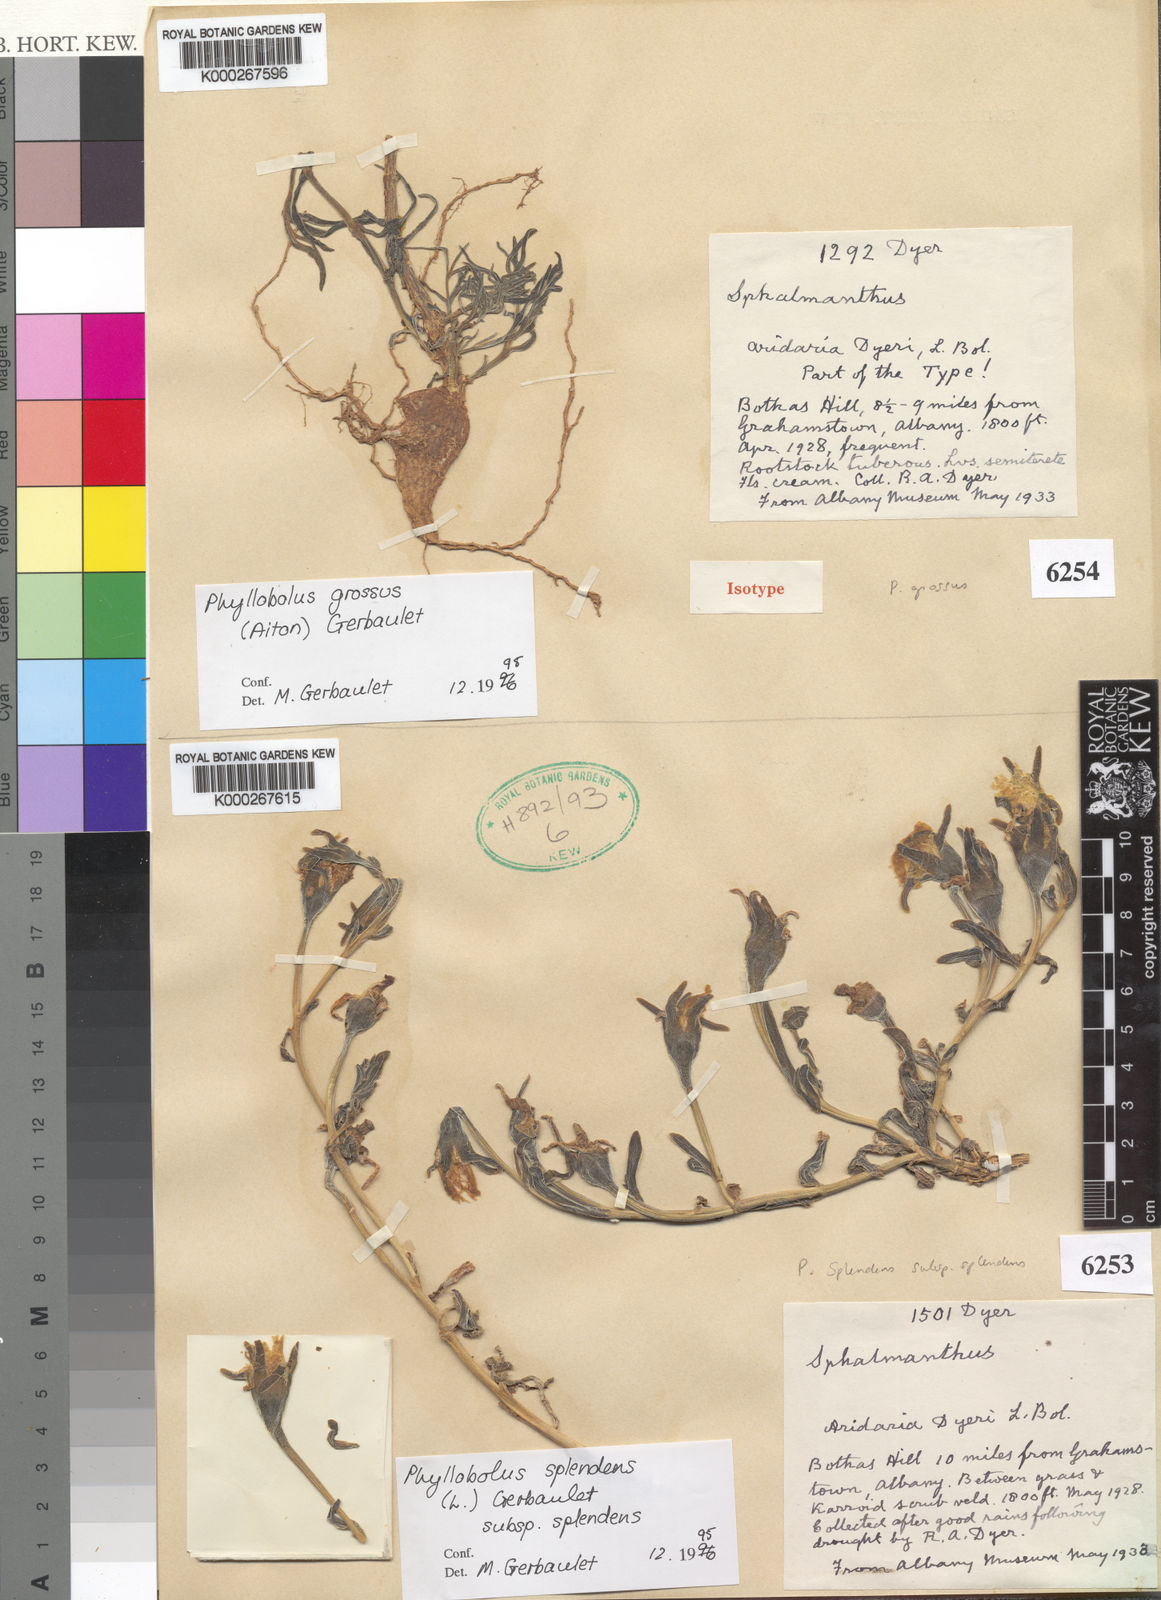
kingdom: Plantae
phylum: Tracheophyta
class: Magnoliopsida
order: Caryophyllales
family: Aizoaceae
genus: Mesembryanthemum
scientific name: Mesembryanthemum grossum
